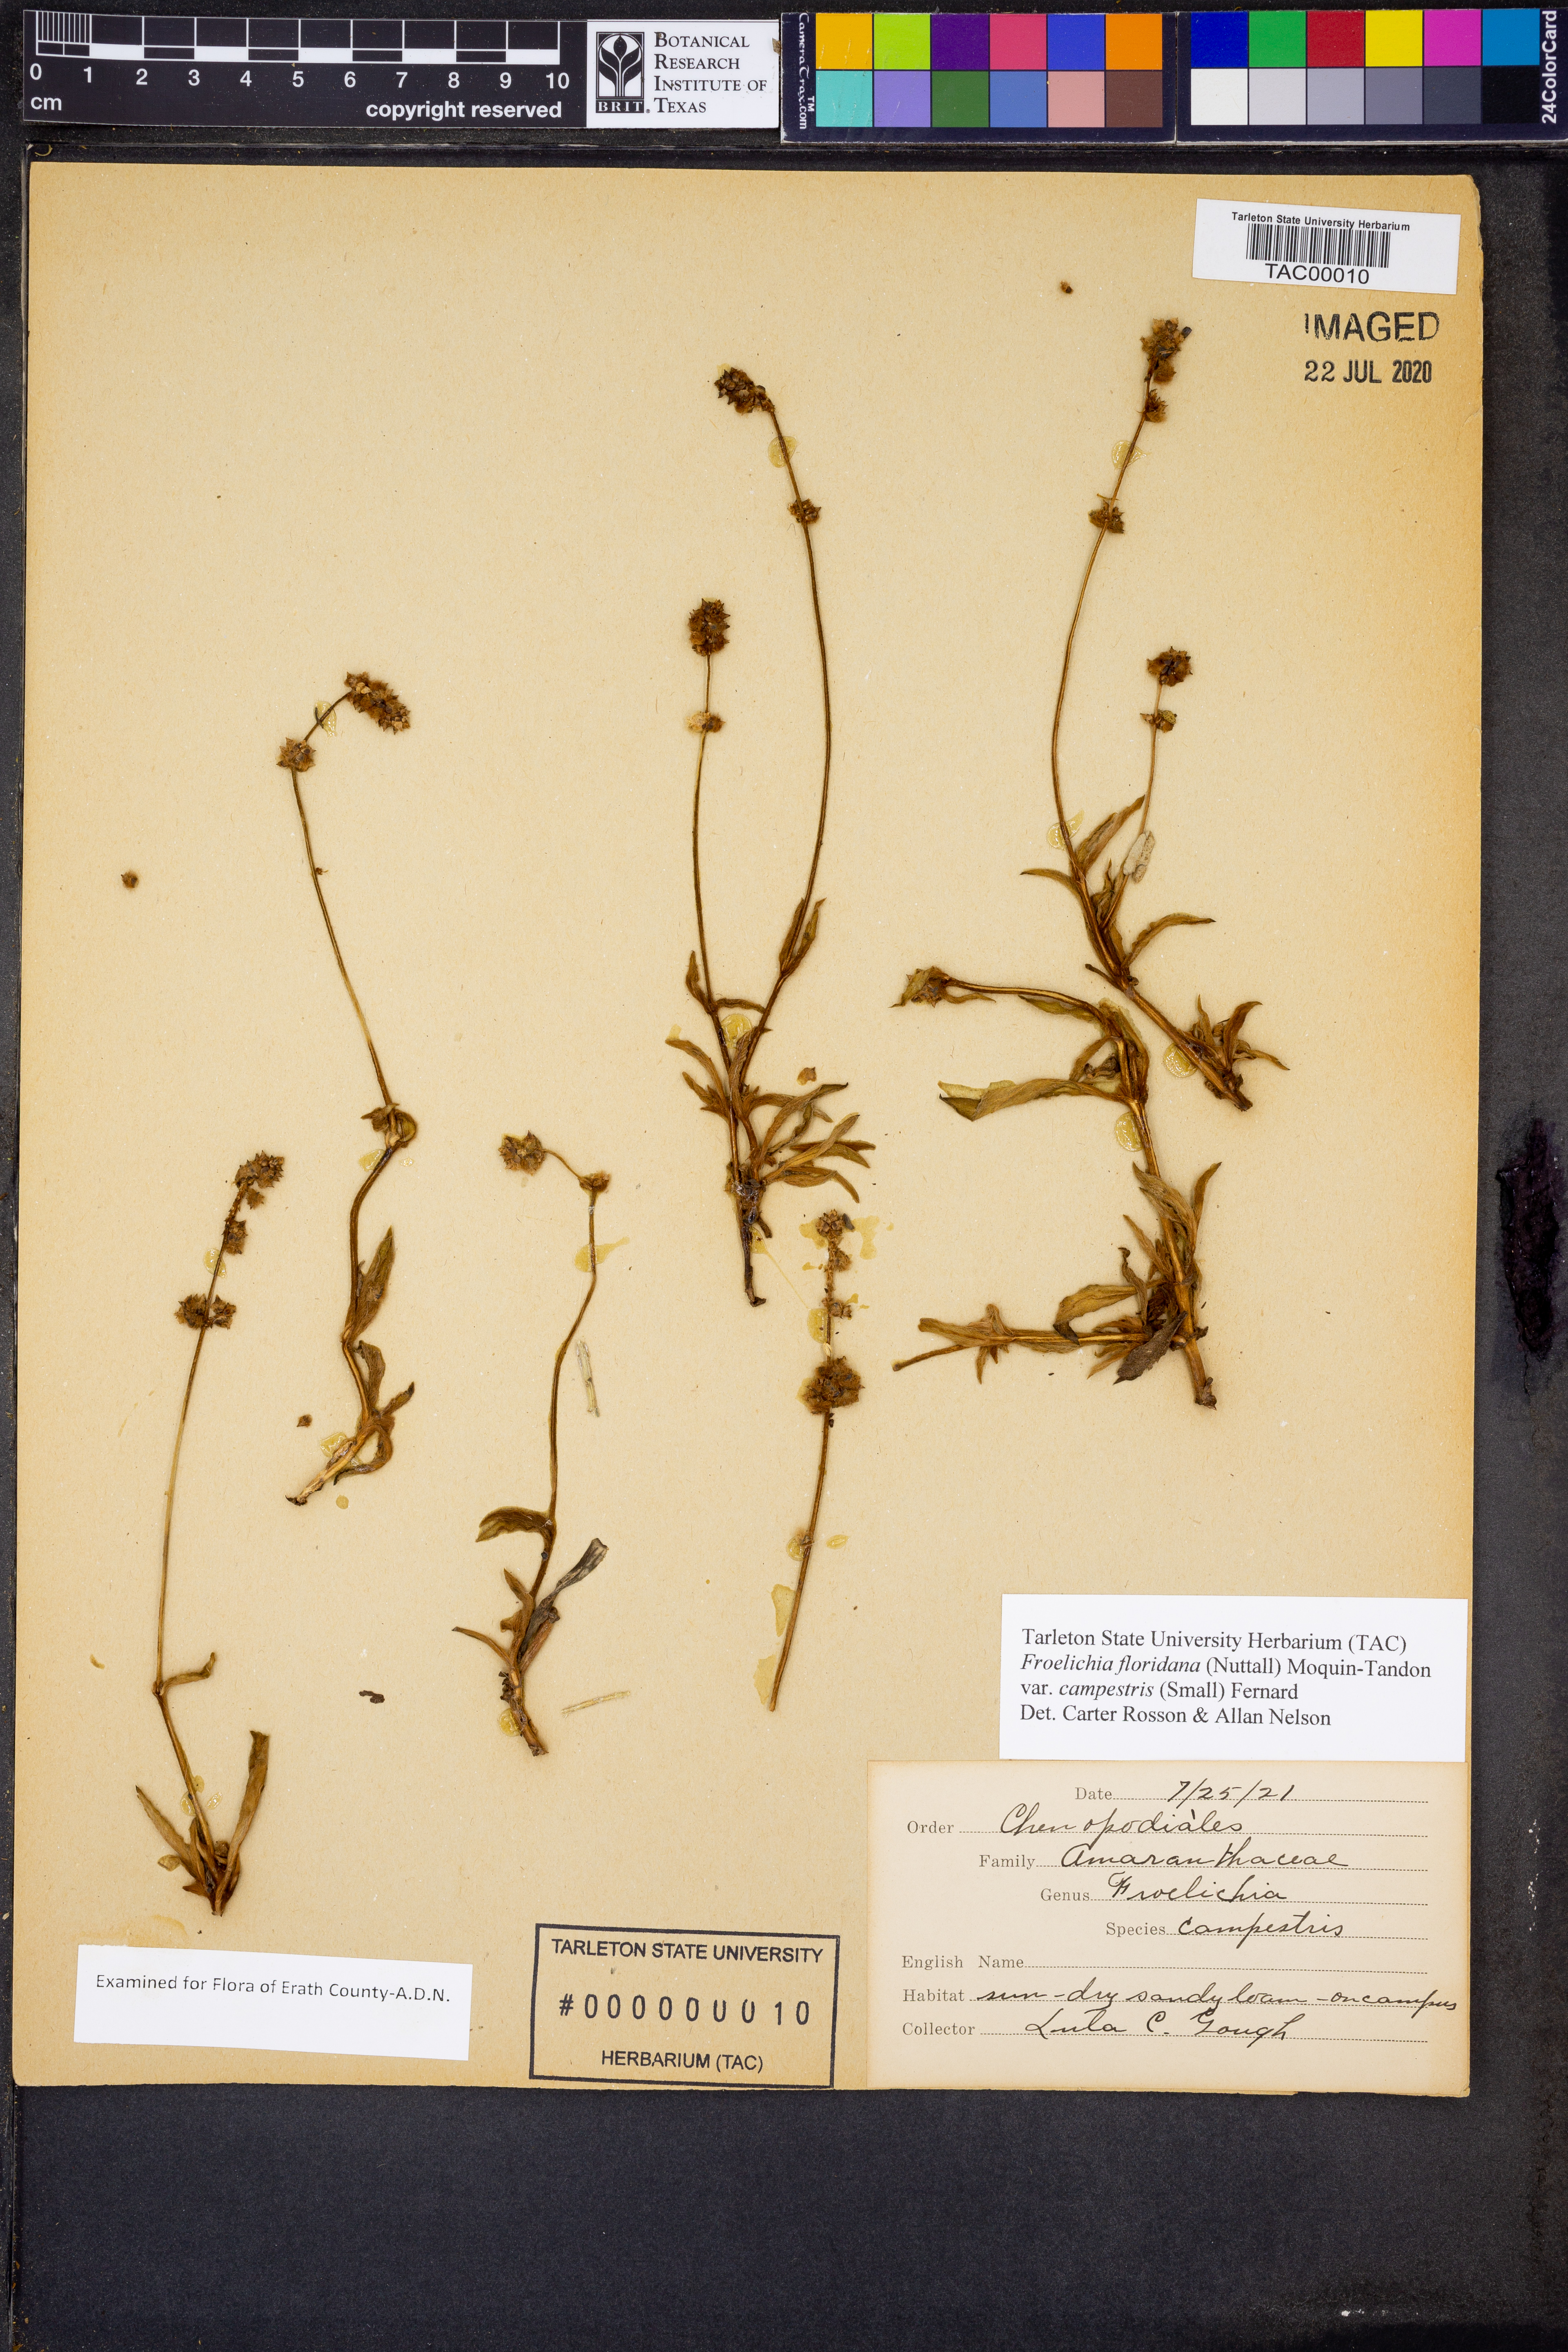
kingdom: Plantae
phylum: Tracheophyta
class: Magnoliopsida
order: Caryophyllales
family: Amaranthaceae
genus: Froelichia
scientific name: Froelichia floridana
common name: Florida snake-cotton
